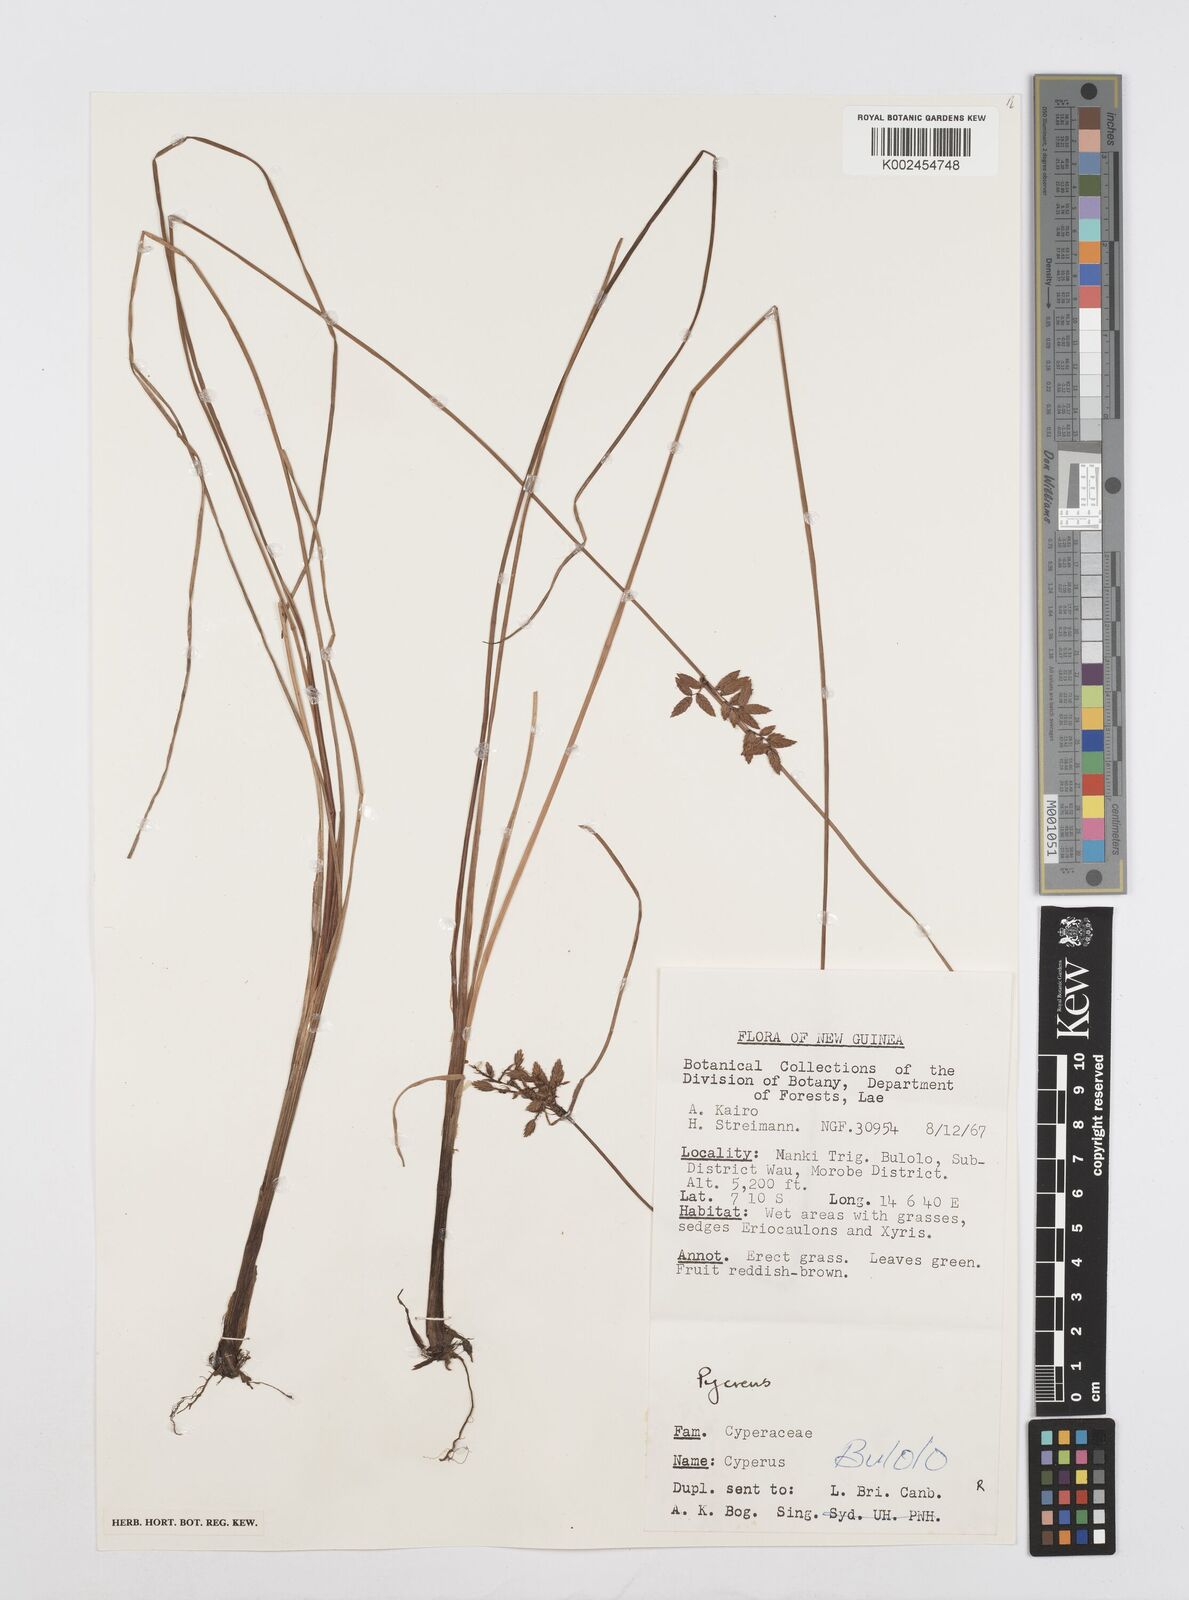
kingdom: Plantae
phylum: Tracheophyta
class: Liliopsida
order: Poales
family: Cyperaceae
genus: Cyperus
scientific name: Cyperus unioloides
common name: Uniola flatsedge
